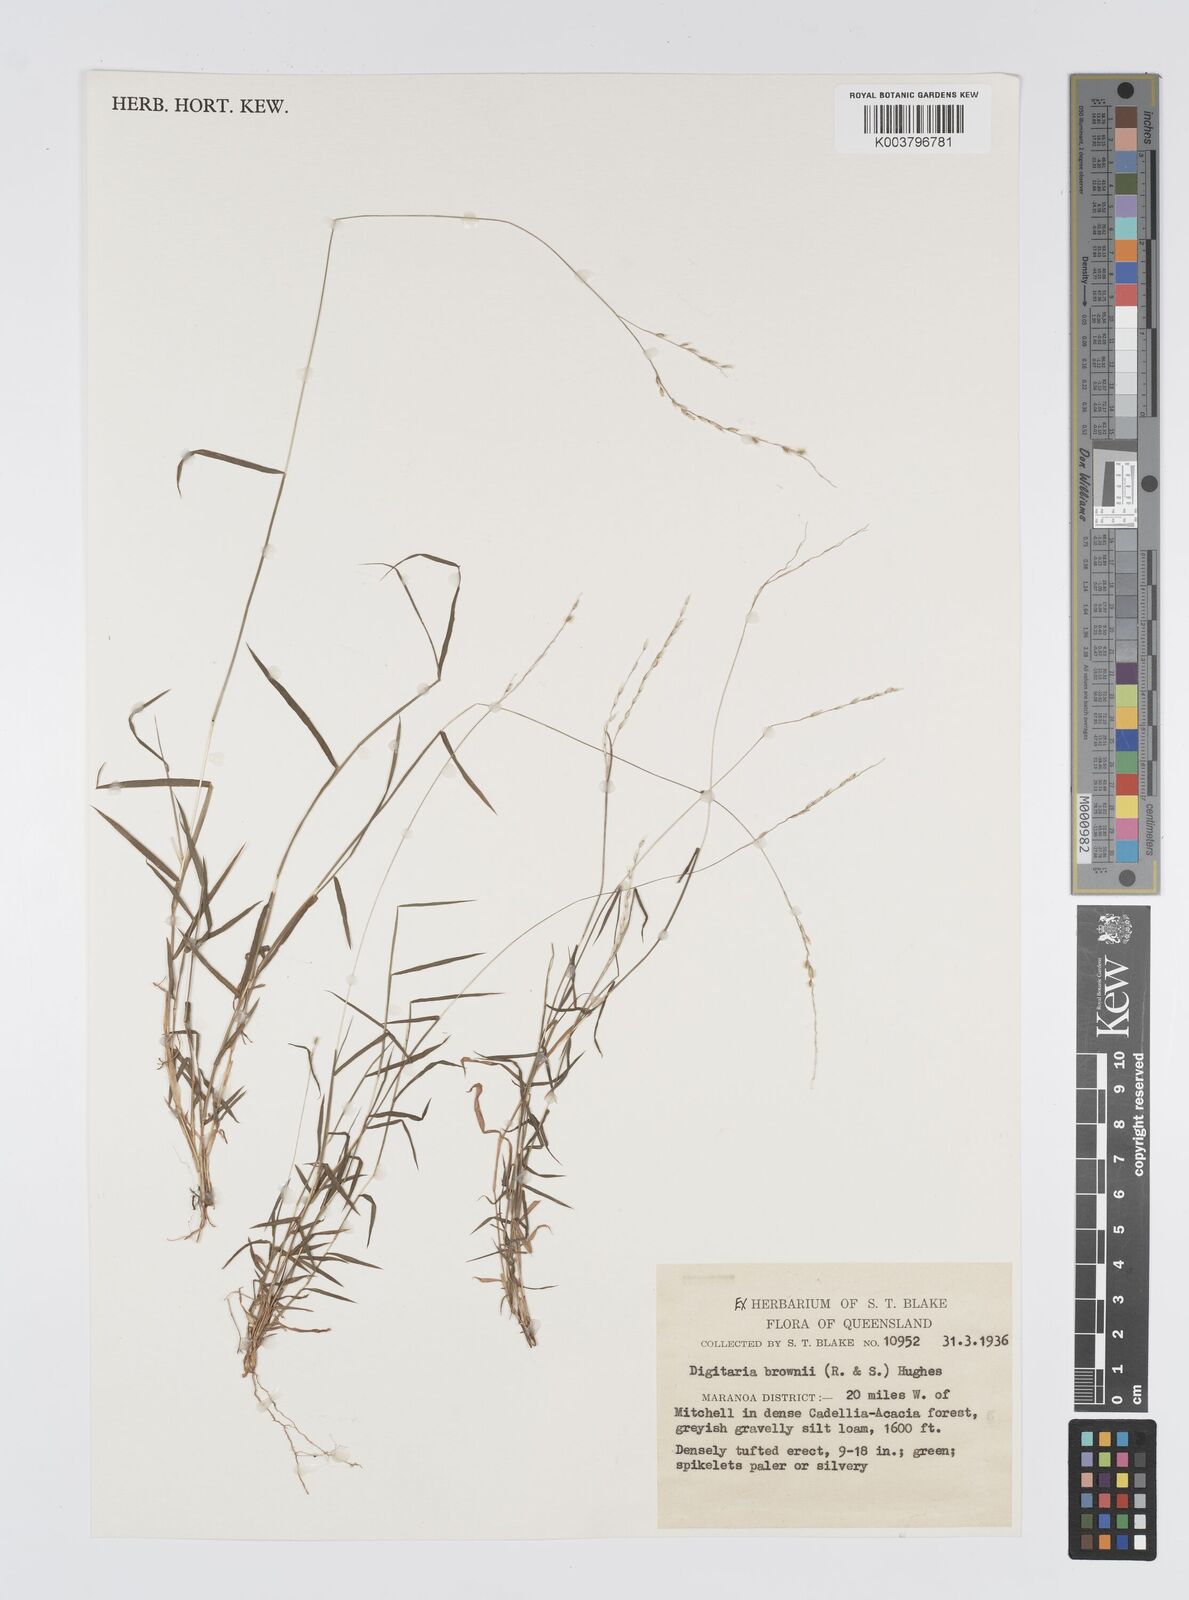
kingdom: Plantae
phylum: Tracheophyta
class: Liliopsida
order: Poales
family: Poaceae
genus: Digitaria
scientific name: Digitaria brownii
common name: Cotton grass
